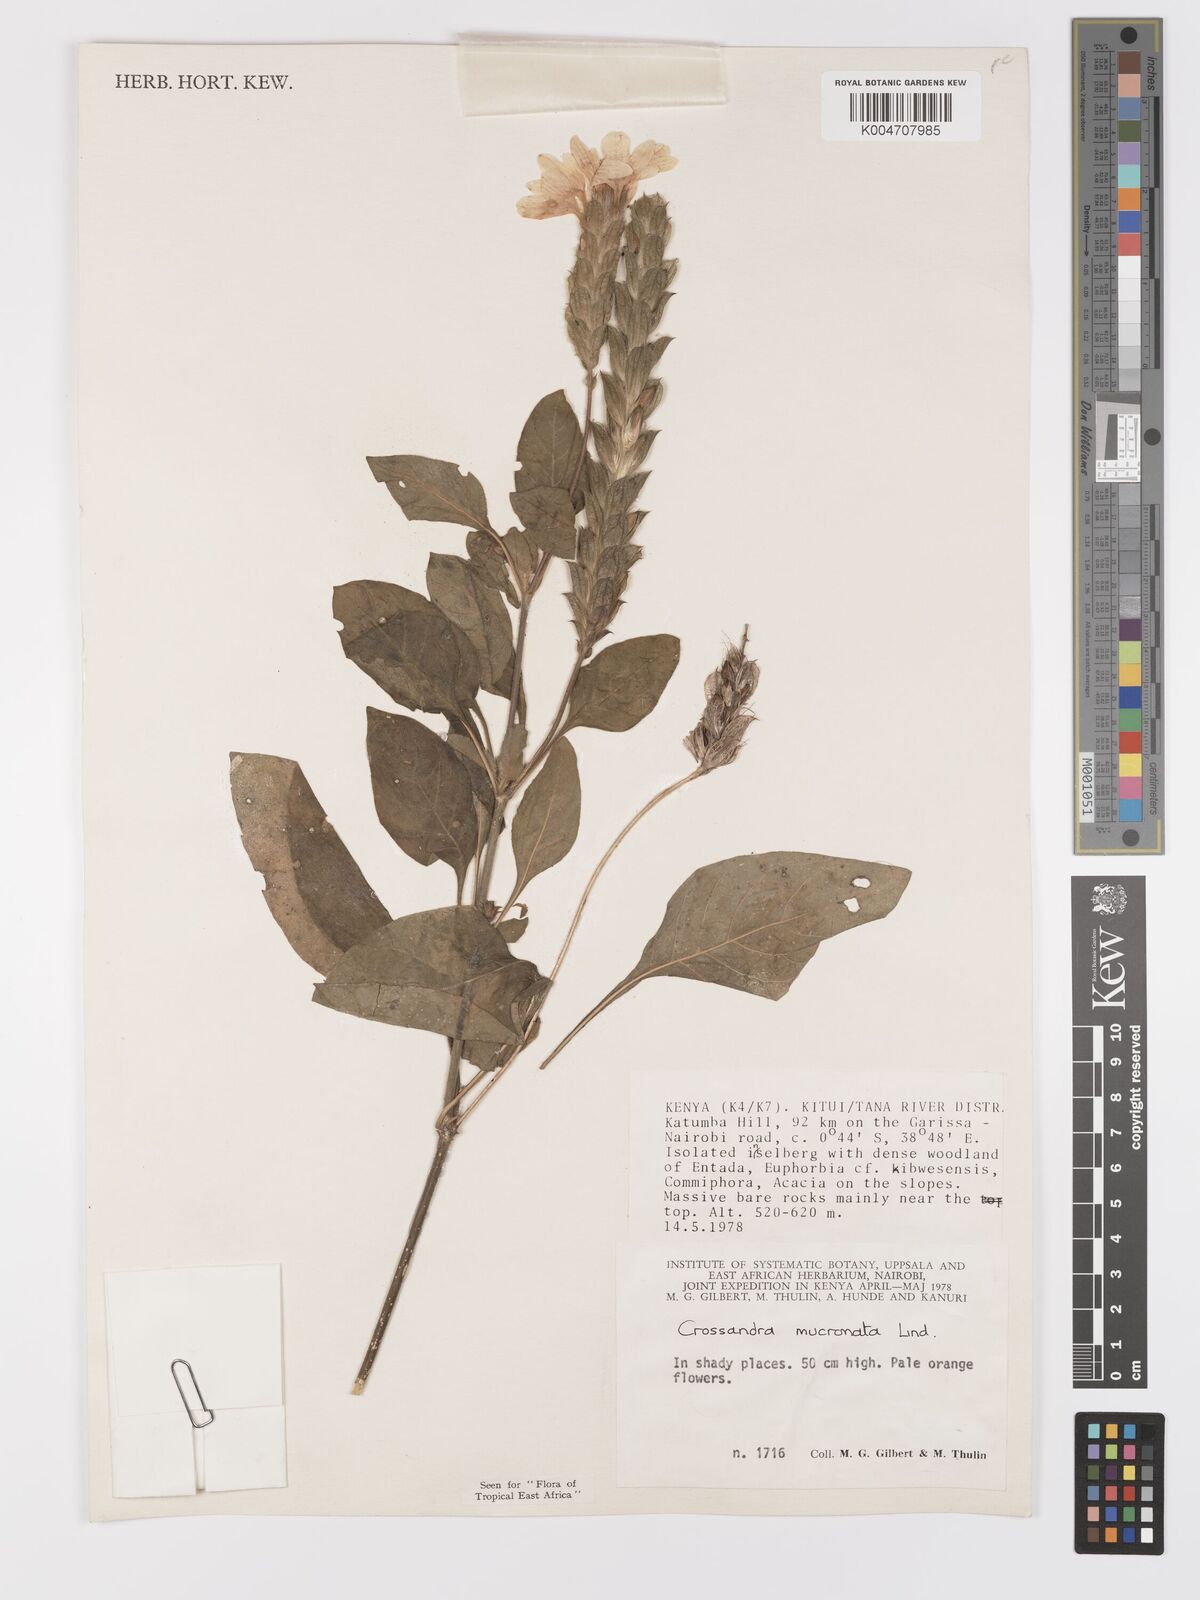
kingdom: Plantae
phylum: Tracheophyta
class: Magnoliopsida
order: Lamiales
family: Acanthaceae
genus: Crossandra
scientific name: Crossandra mucronata
